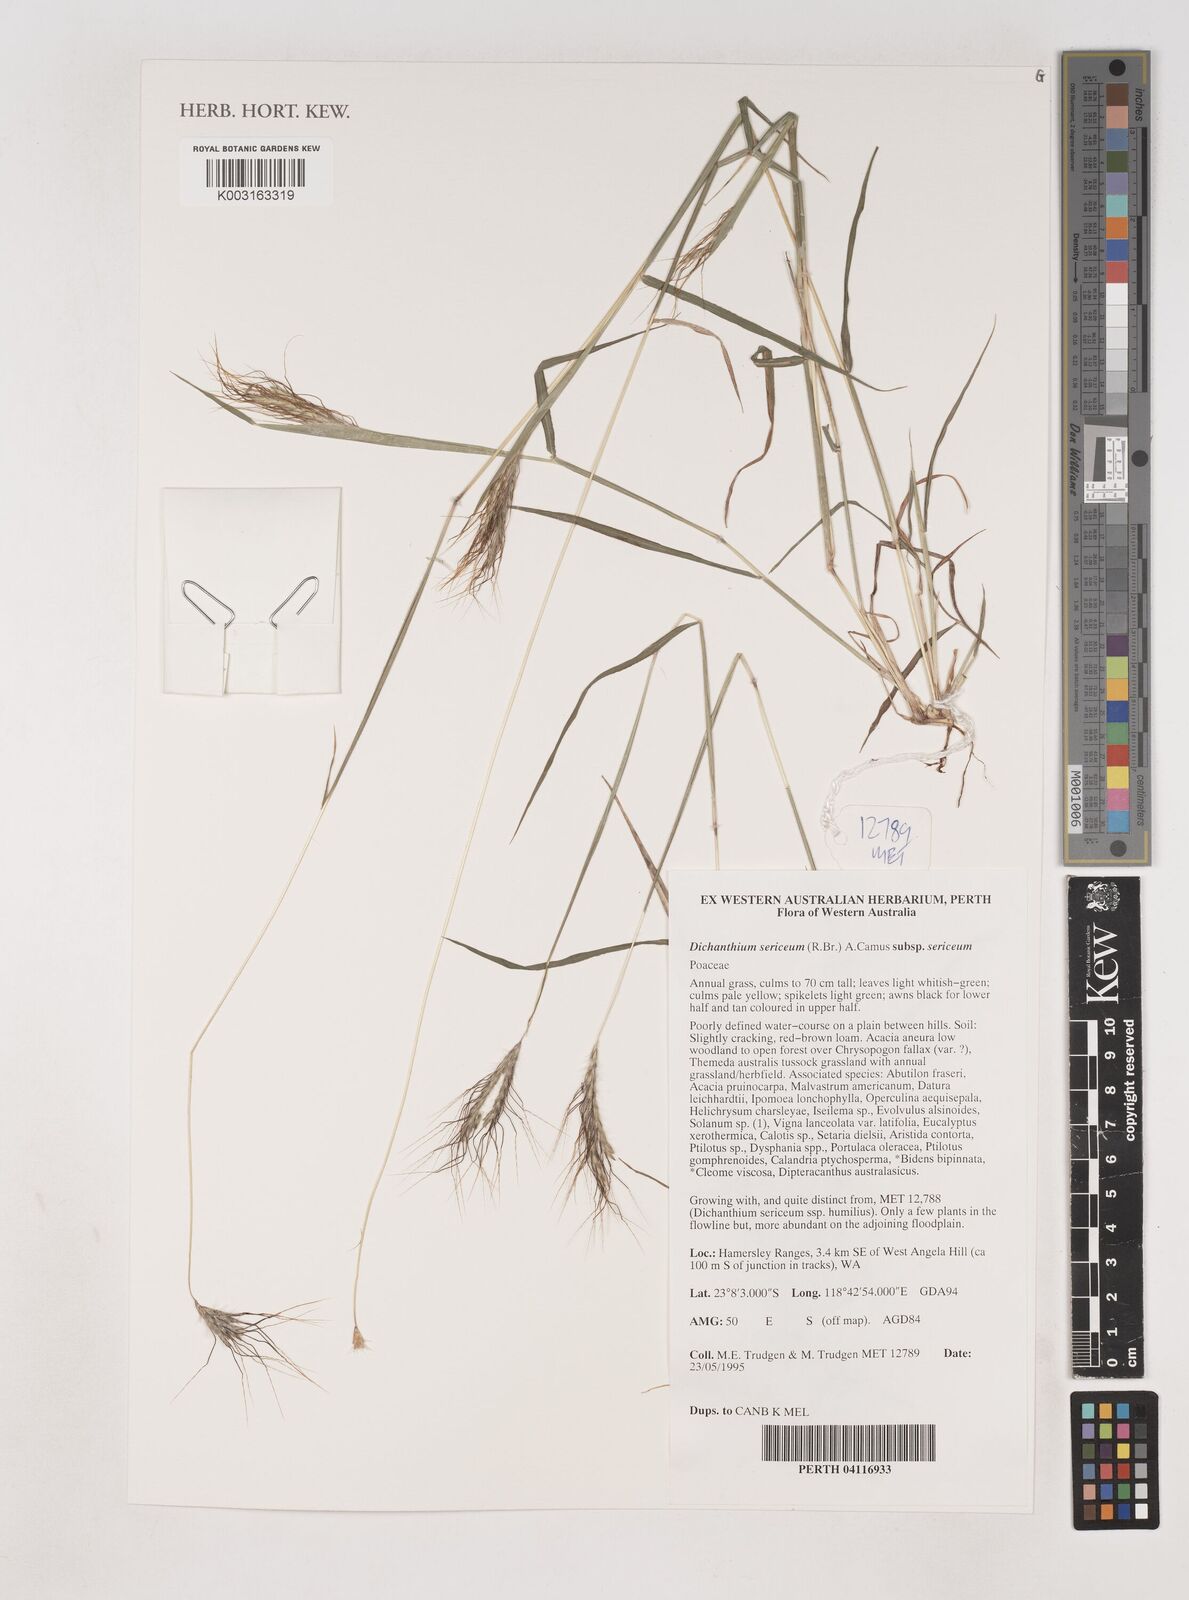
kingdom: Plantae
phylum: Tracheophyta
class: Liliopsida
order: Poales
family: Poaceae
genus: Dichanthium
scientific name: Dichanthium sericeum
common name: Silky bluestem
